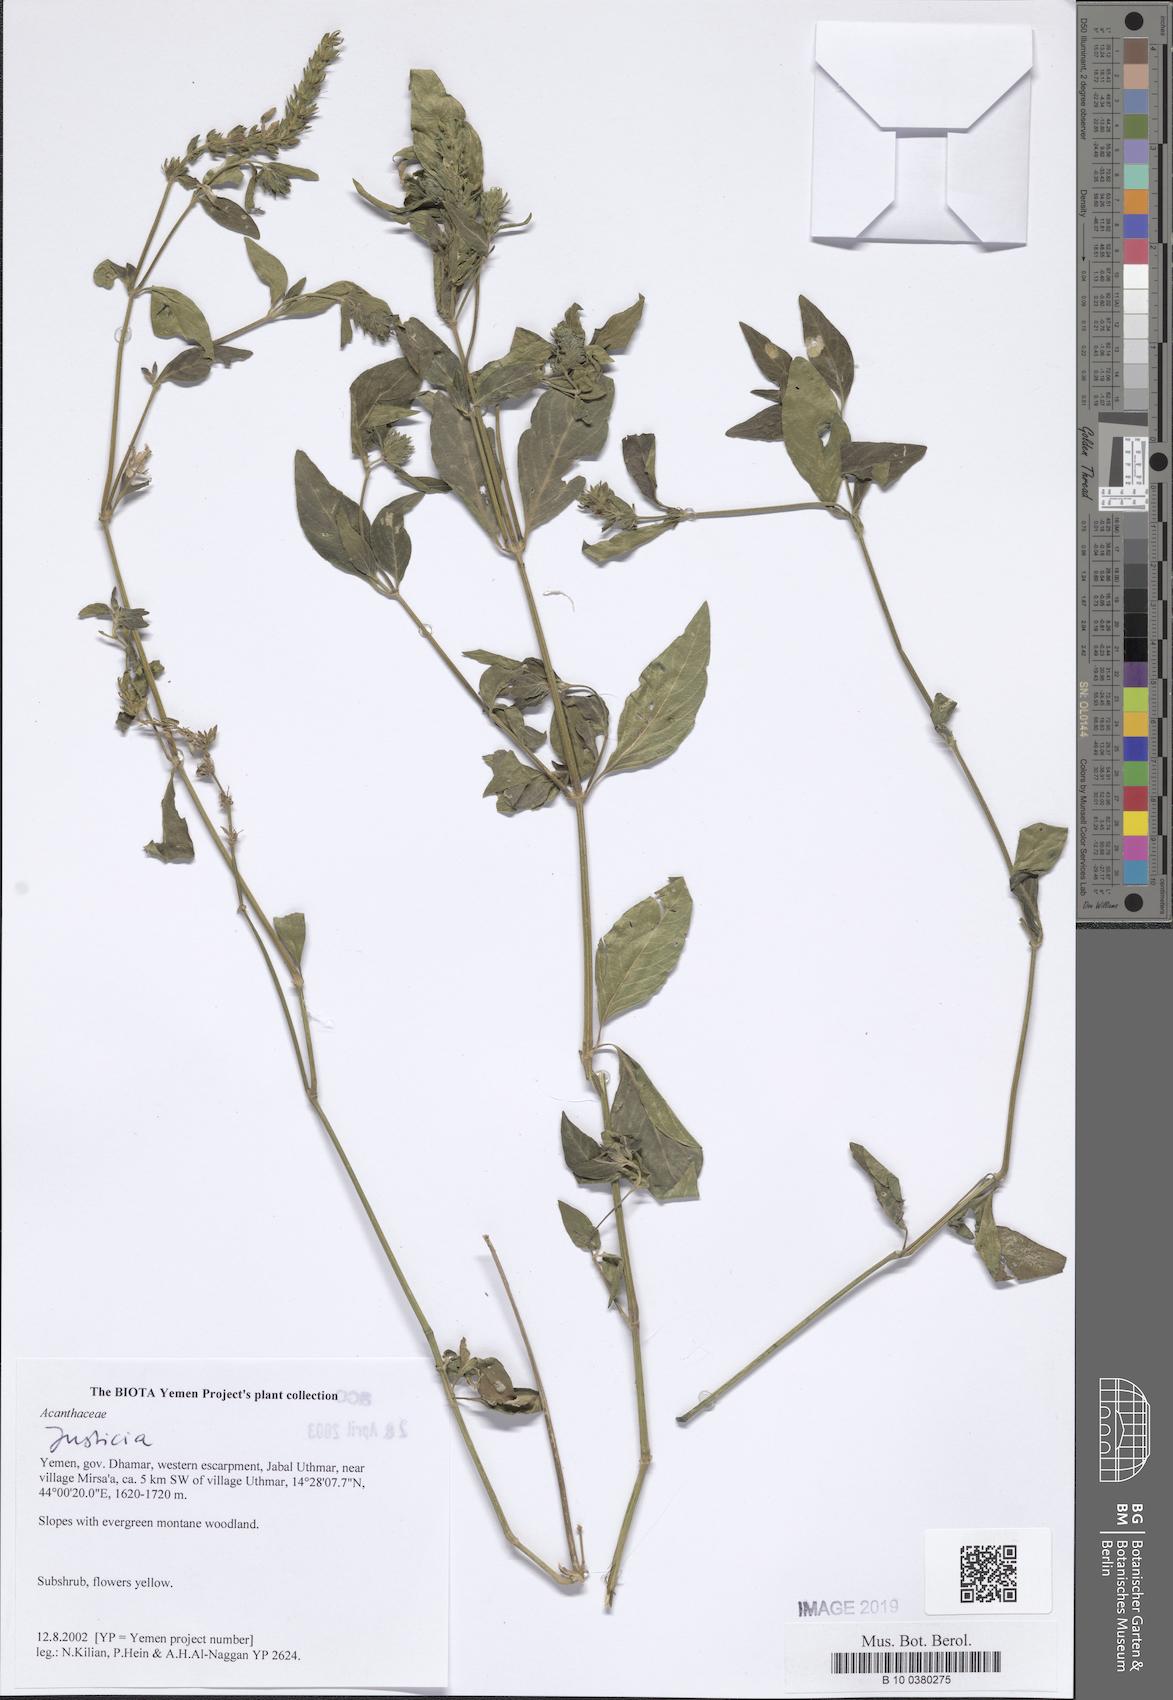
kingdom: Plantae
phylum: Tracheophyta
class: Magnoliopsida
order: Lamiales
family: Acanthaceae
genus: Justicia
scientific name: Justicia
